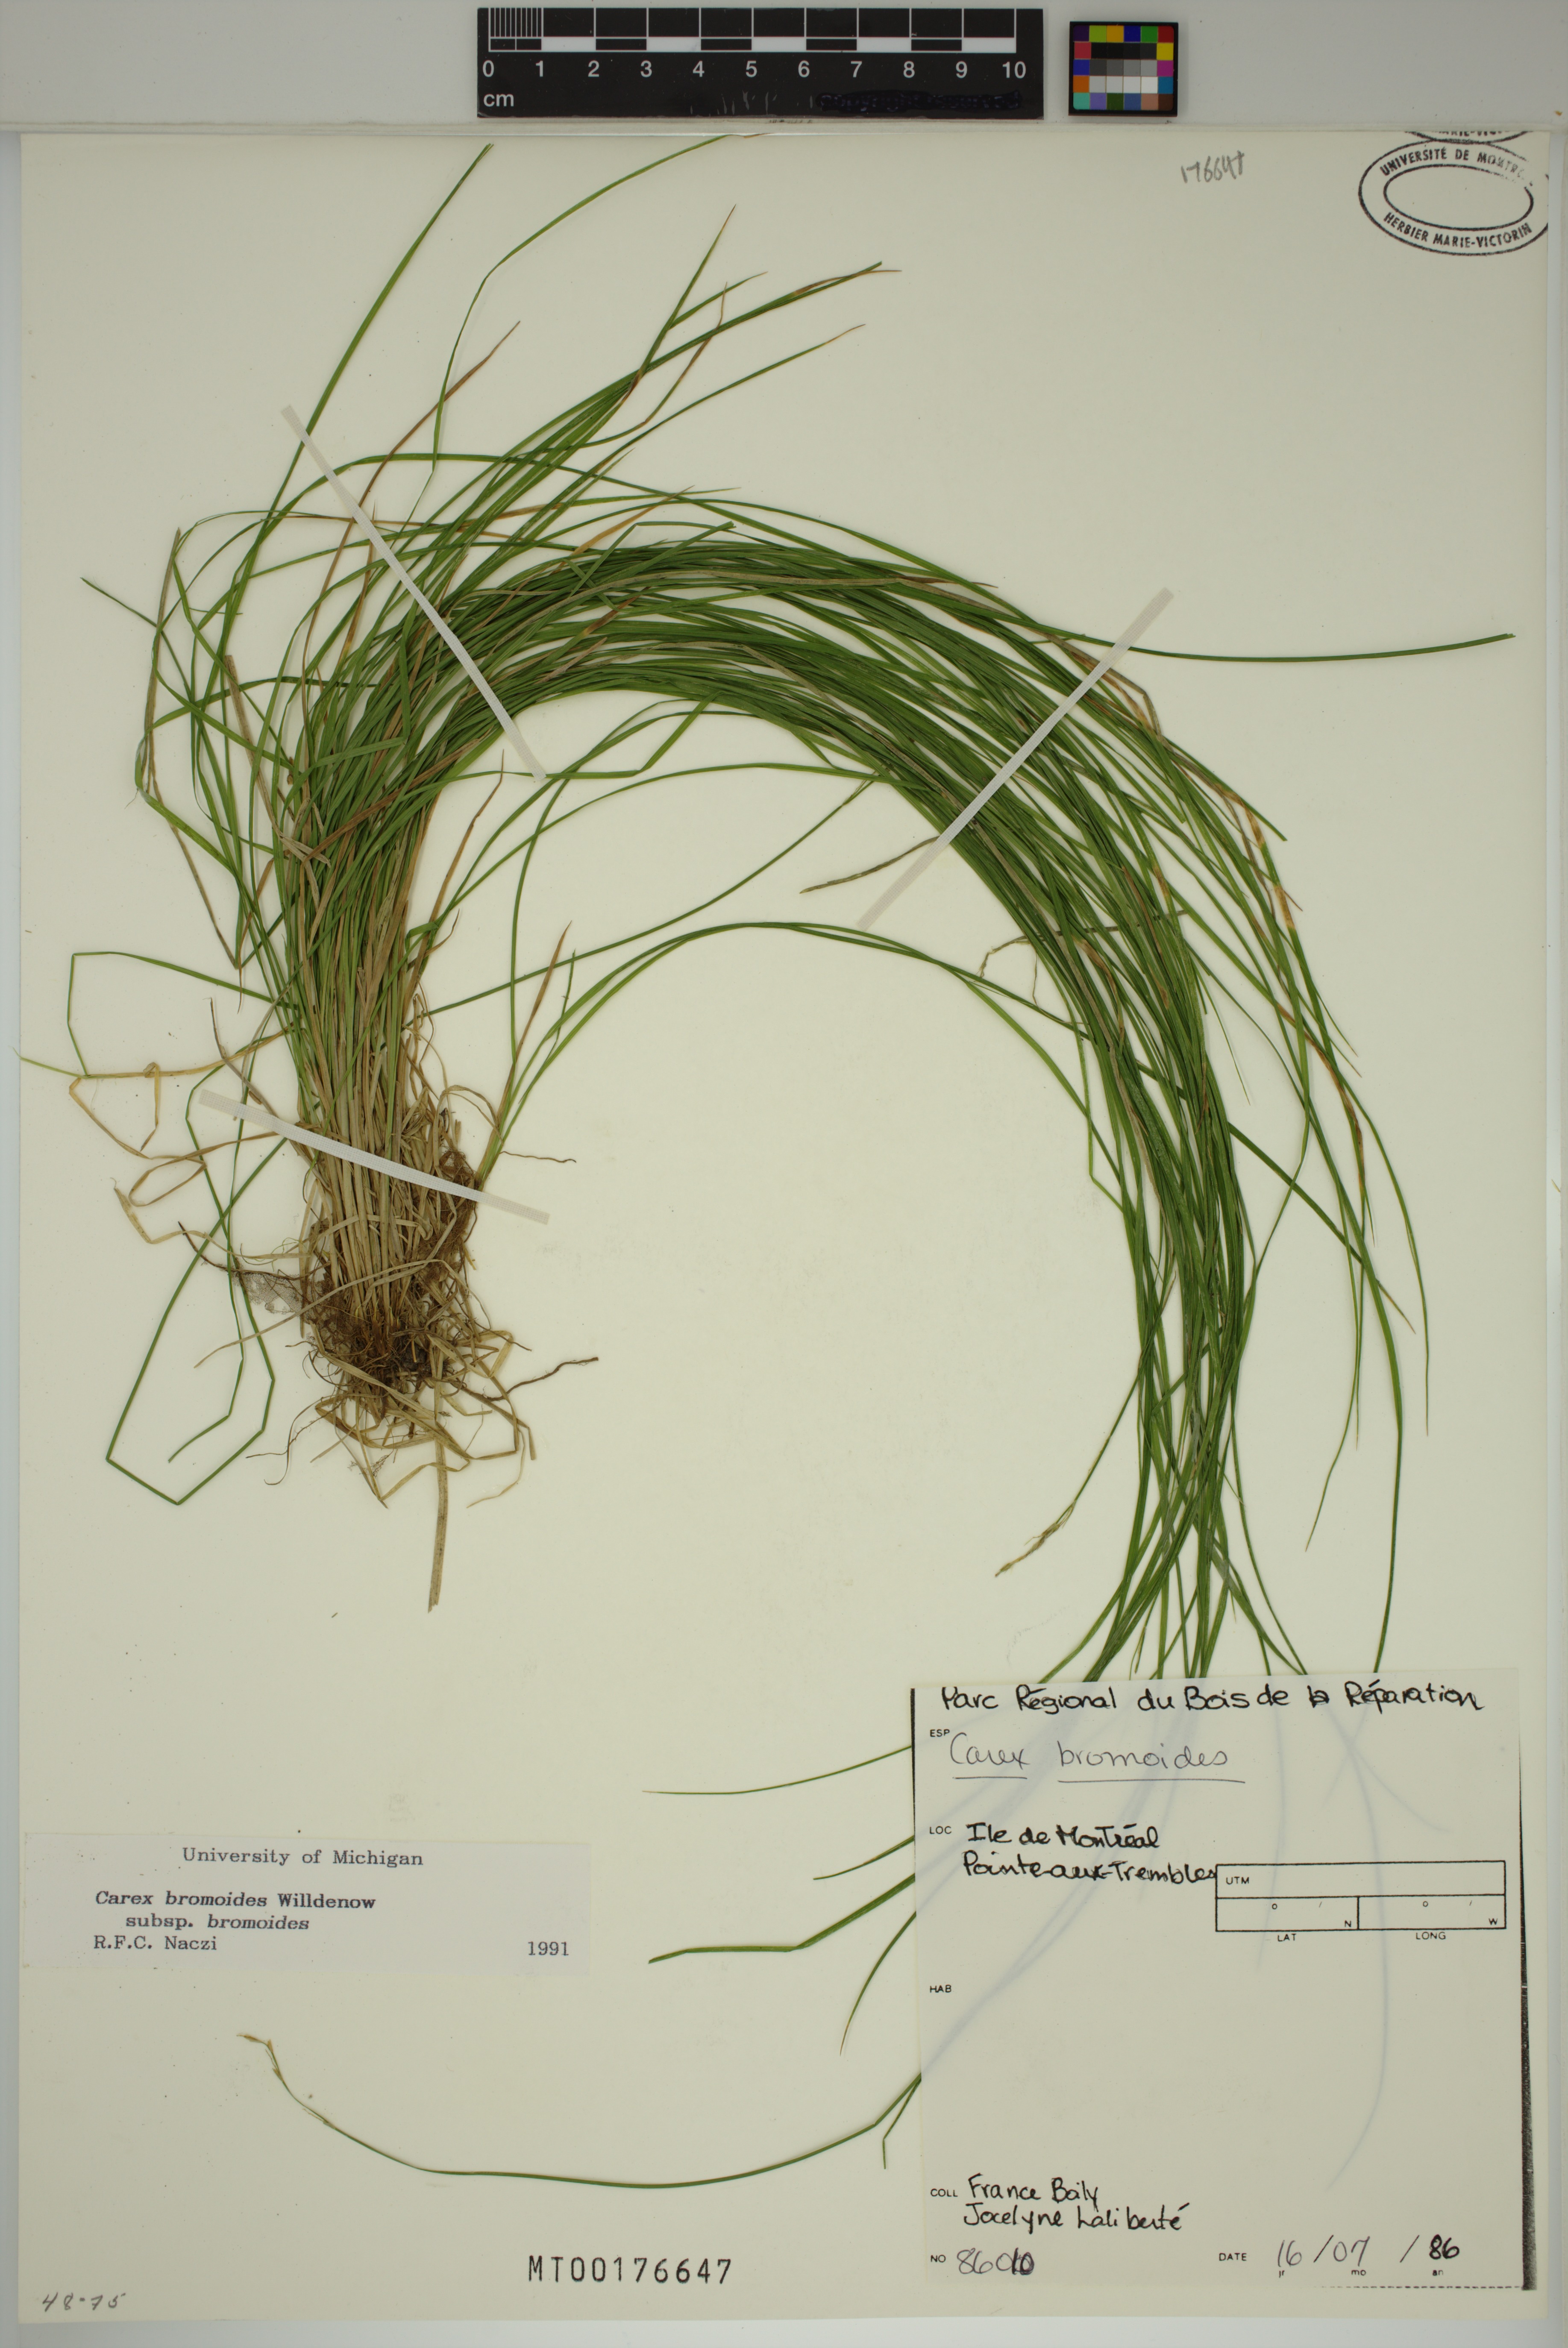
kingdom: Plantae
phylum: Tracheophyta
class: Liliopsida
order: Poales
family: Cyperaceae
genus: Carex
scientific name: Carex bromoides
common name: Brome hummock sedge
